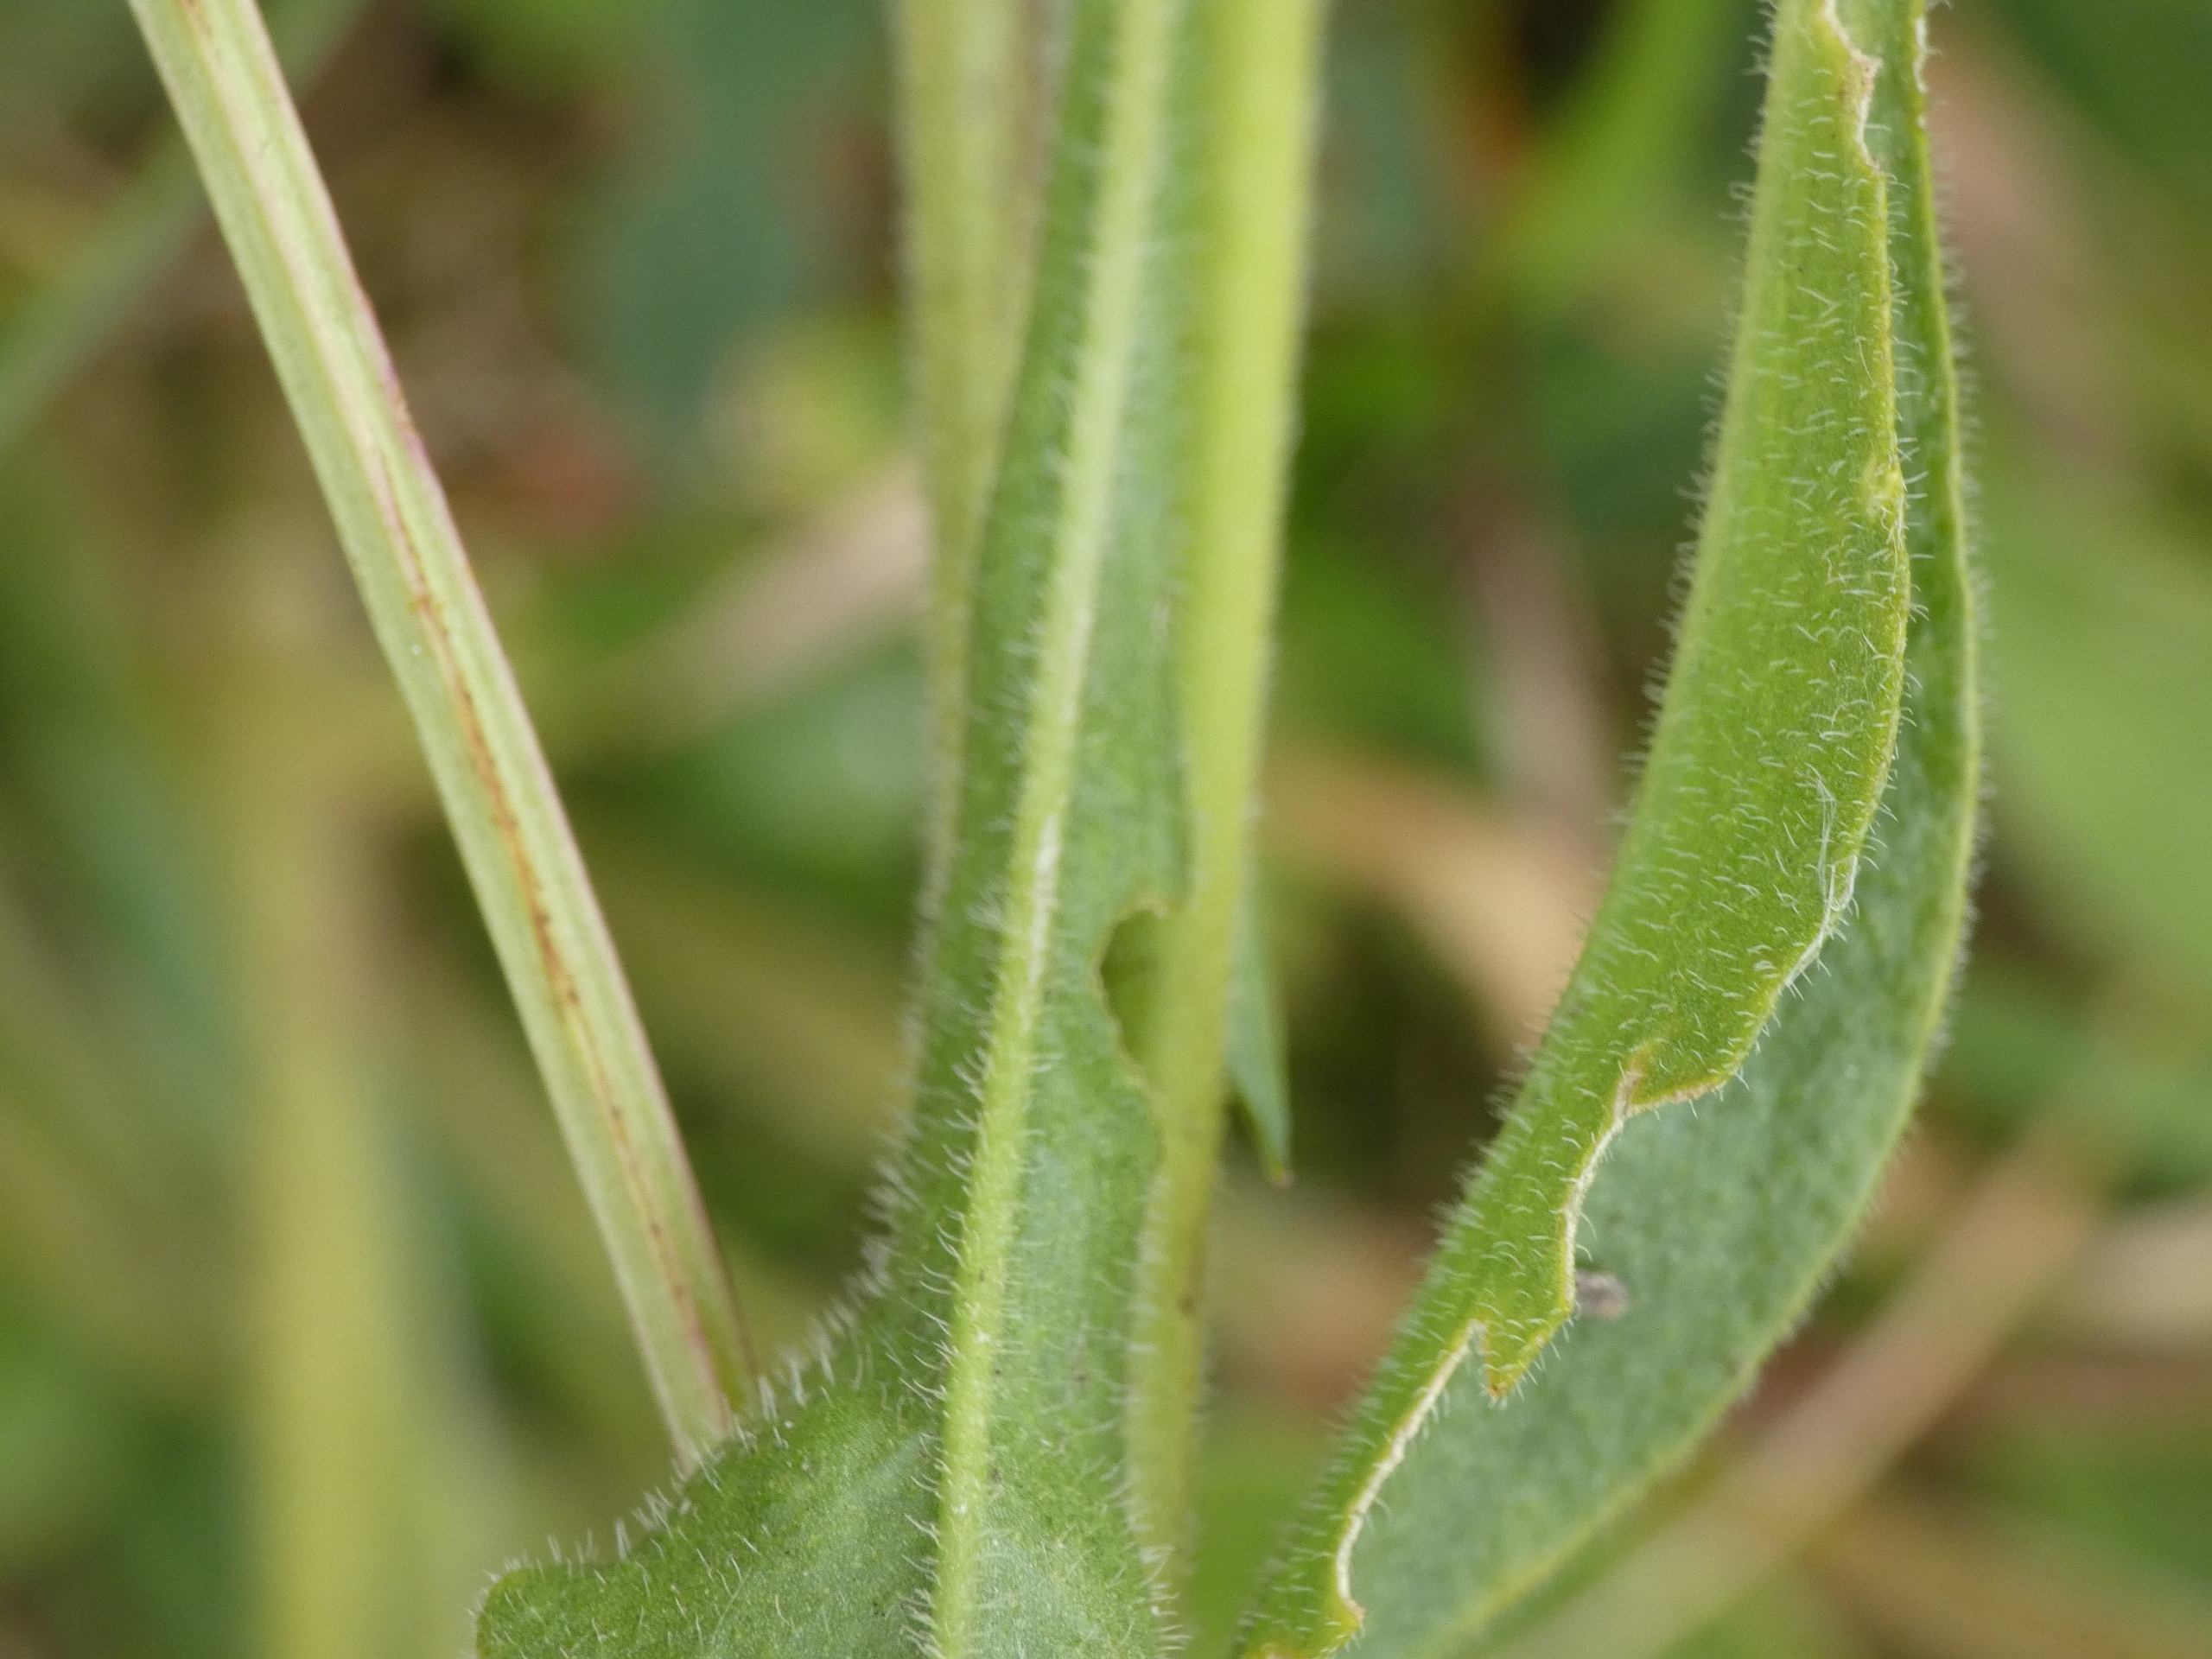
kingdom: Plantae
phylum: Tracheophyta
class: Magnoliopsida
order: Caryophyllales
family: Caryophyllaceae
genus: Silene
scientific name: Silene nutans
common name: Nikkende limurt
